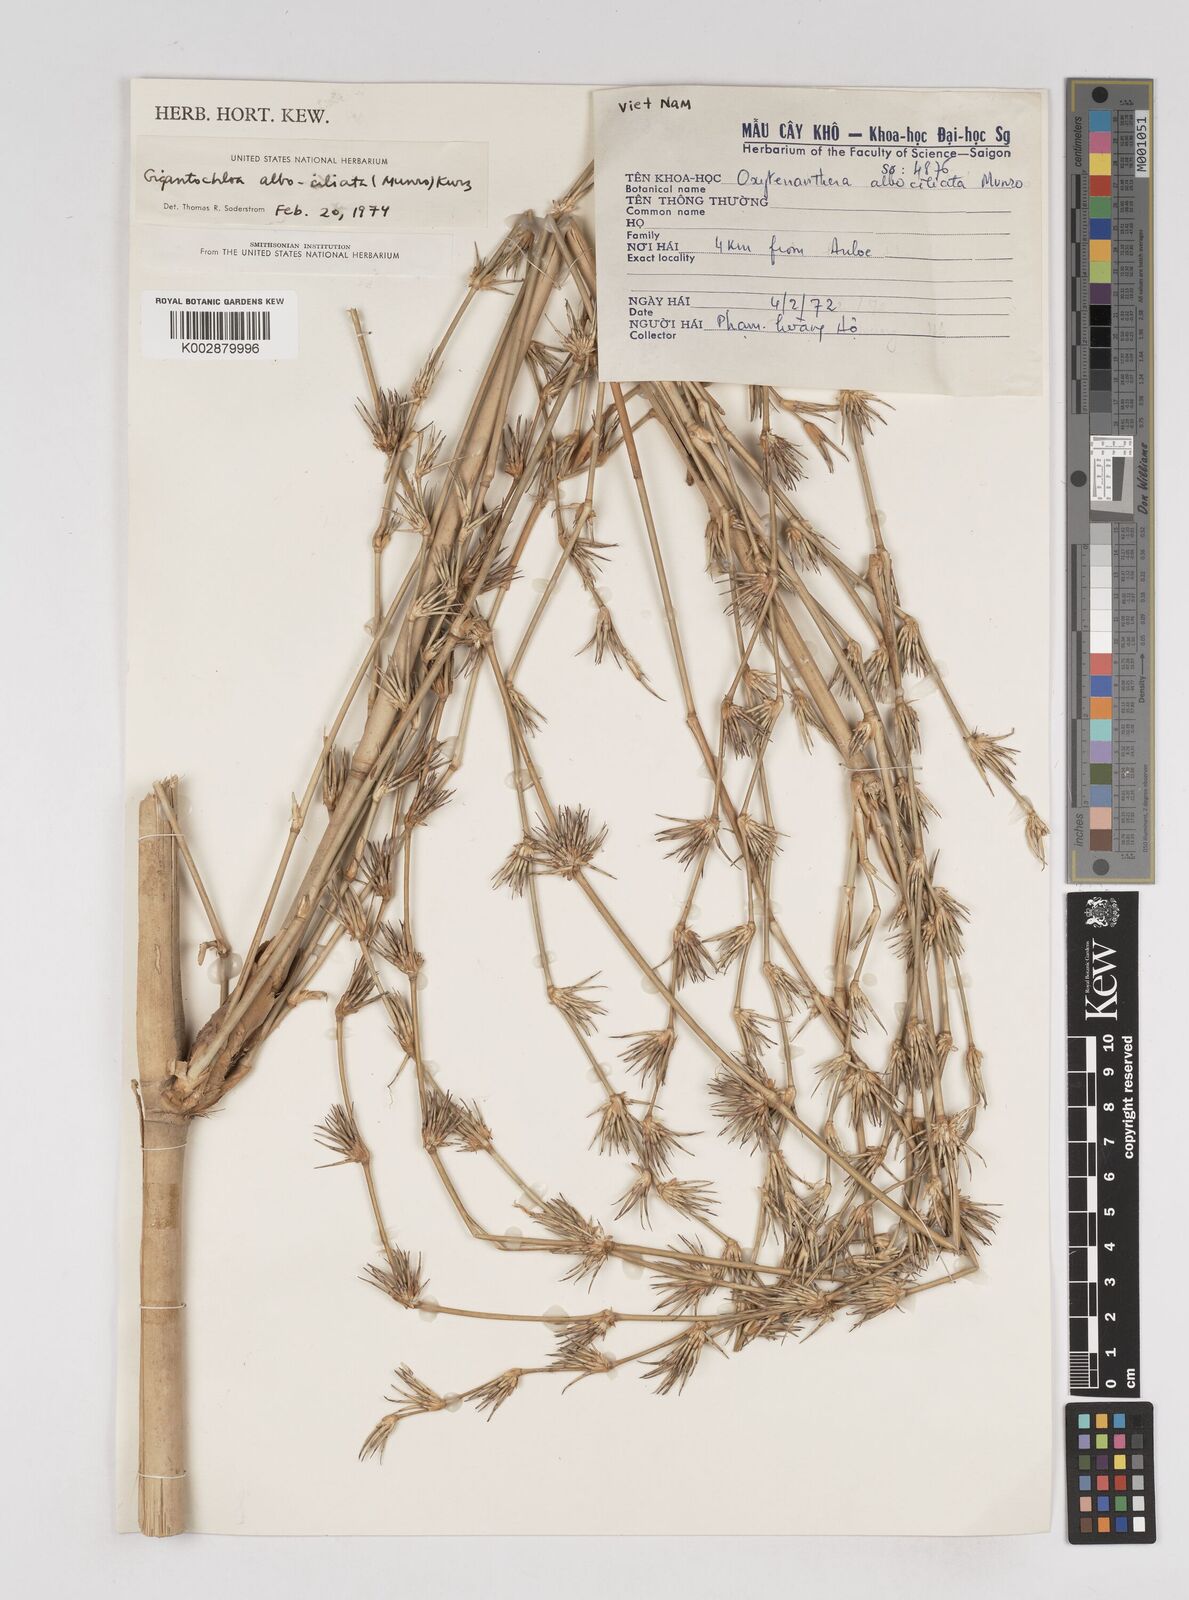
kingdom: Plantae
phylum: Tracheophyta
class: Liliopsida
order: Poales
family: Poaceae
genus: Gigantochloa
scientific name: Gigantochloa albociliata
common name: White-fringe gigantochloa
